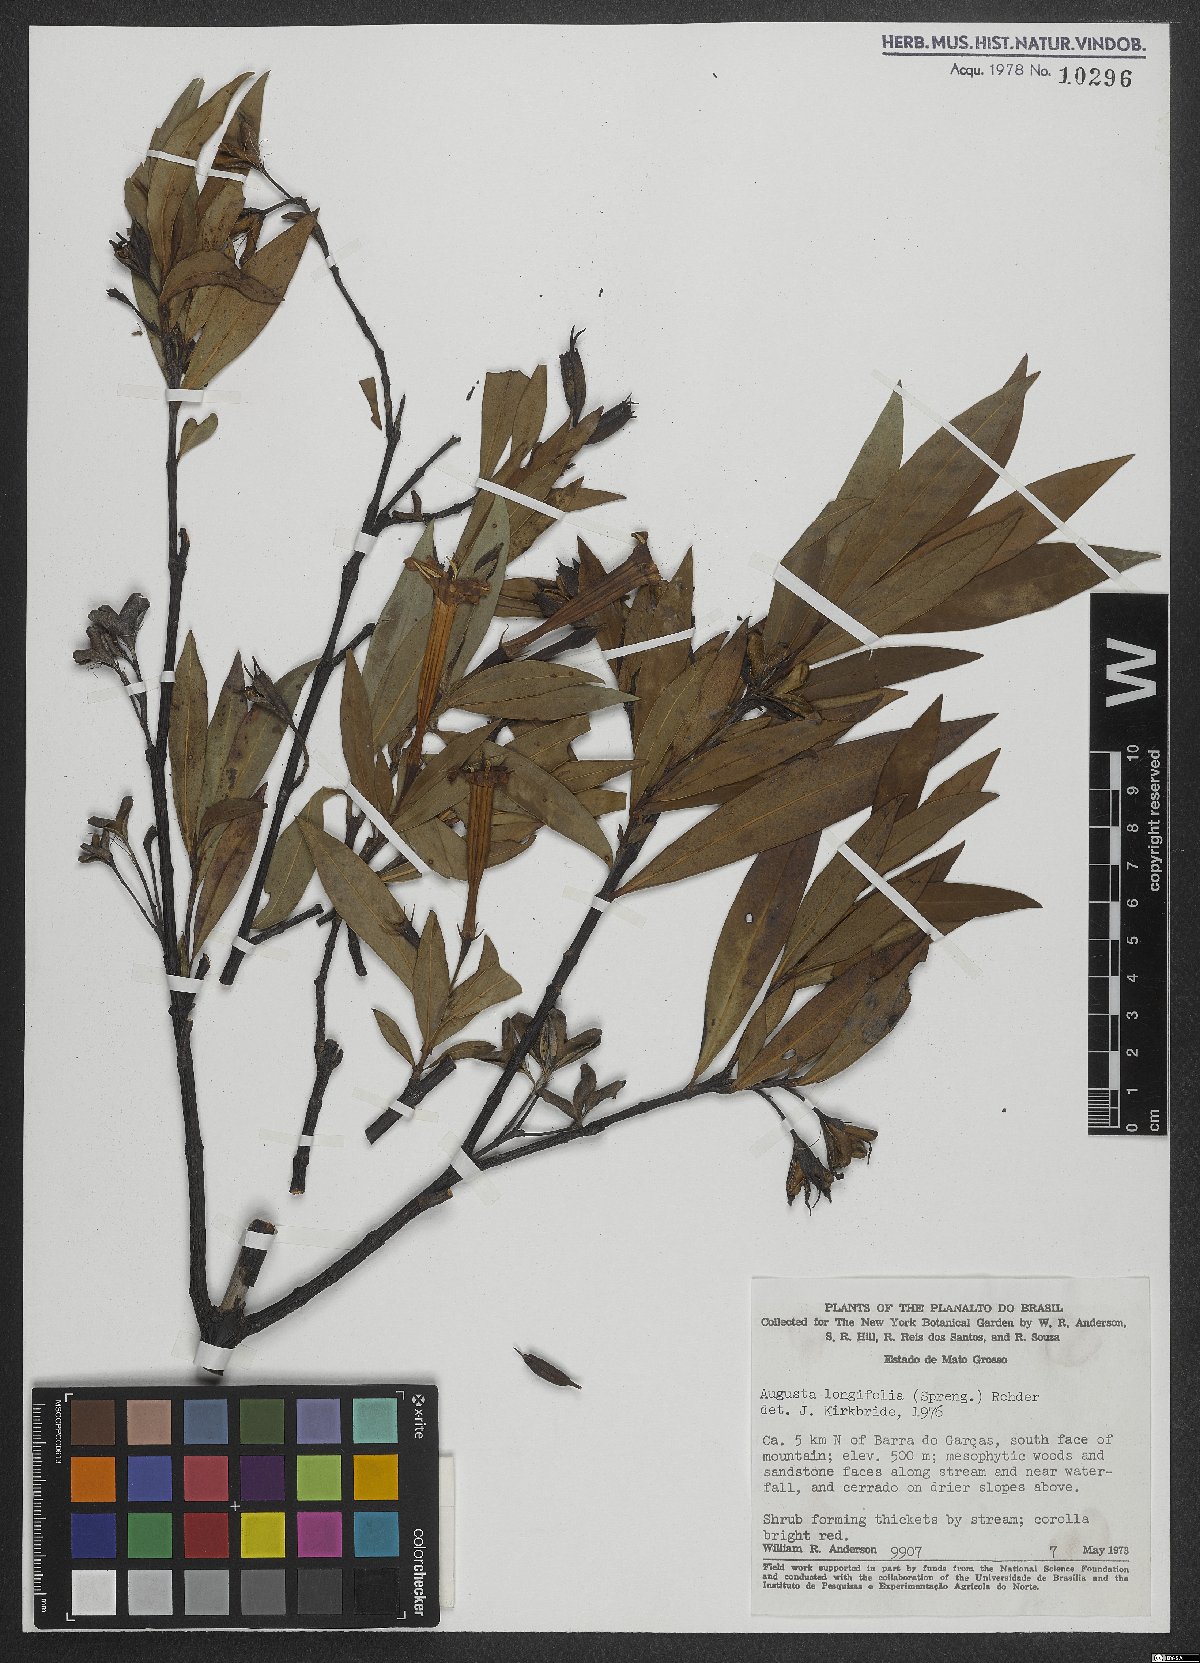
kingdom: Plantae
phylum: Tracheophyta
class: Magnoliopsida
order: Gentianales
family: Rubiaceae
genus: Augusta
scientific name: Augusta longifolia
